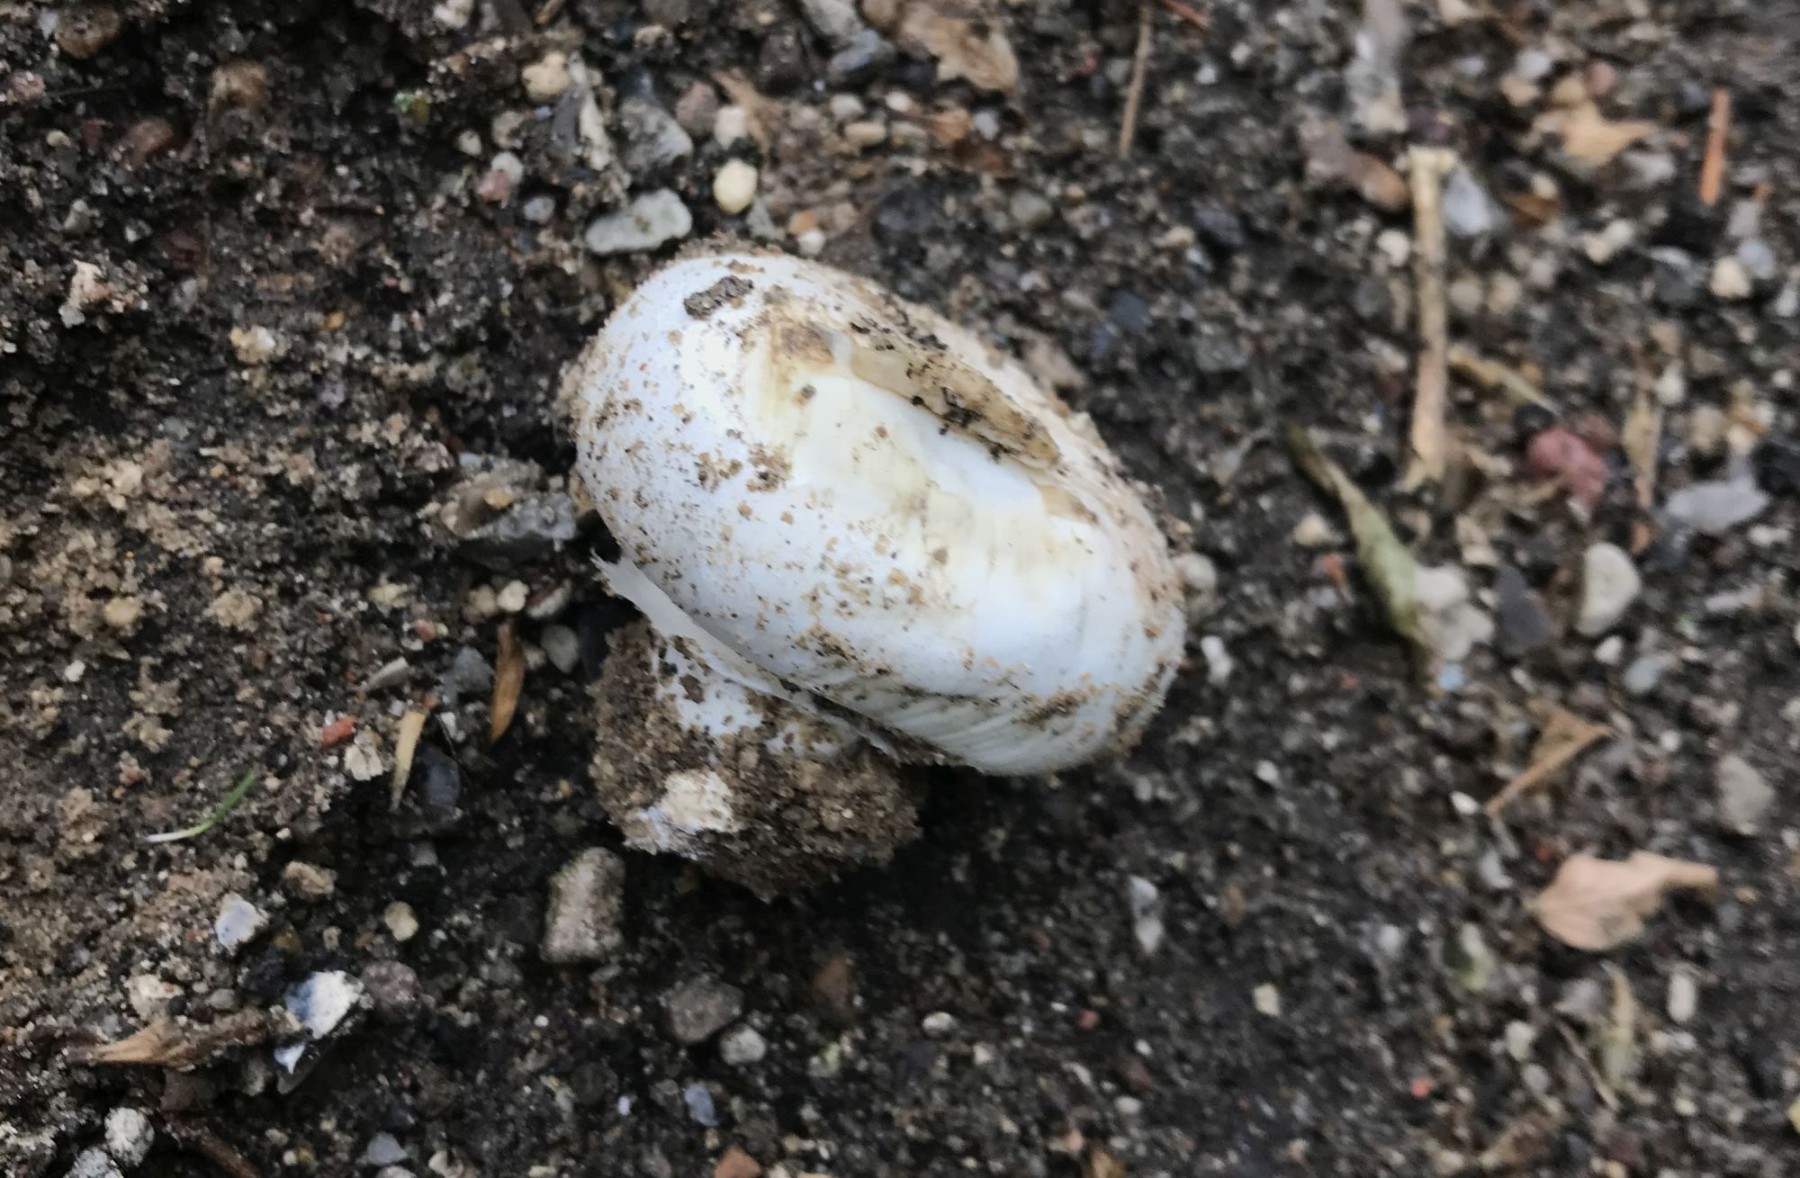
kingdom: Fungi
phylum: Basidiomycota
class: Agaricomycetes
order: Agaricales
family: Agaricaceae
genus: Agaricus
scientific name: Agaricus bitorquis
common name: vej-champignon
